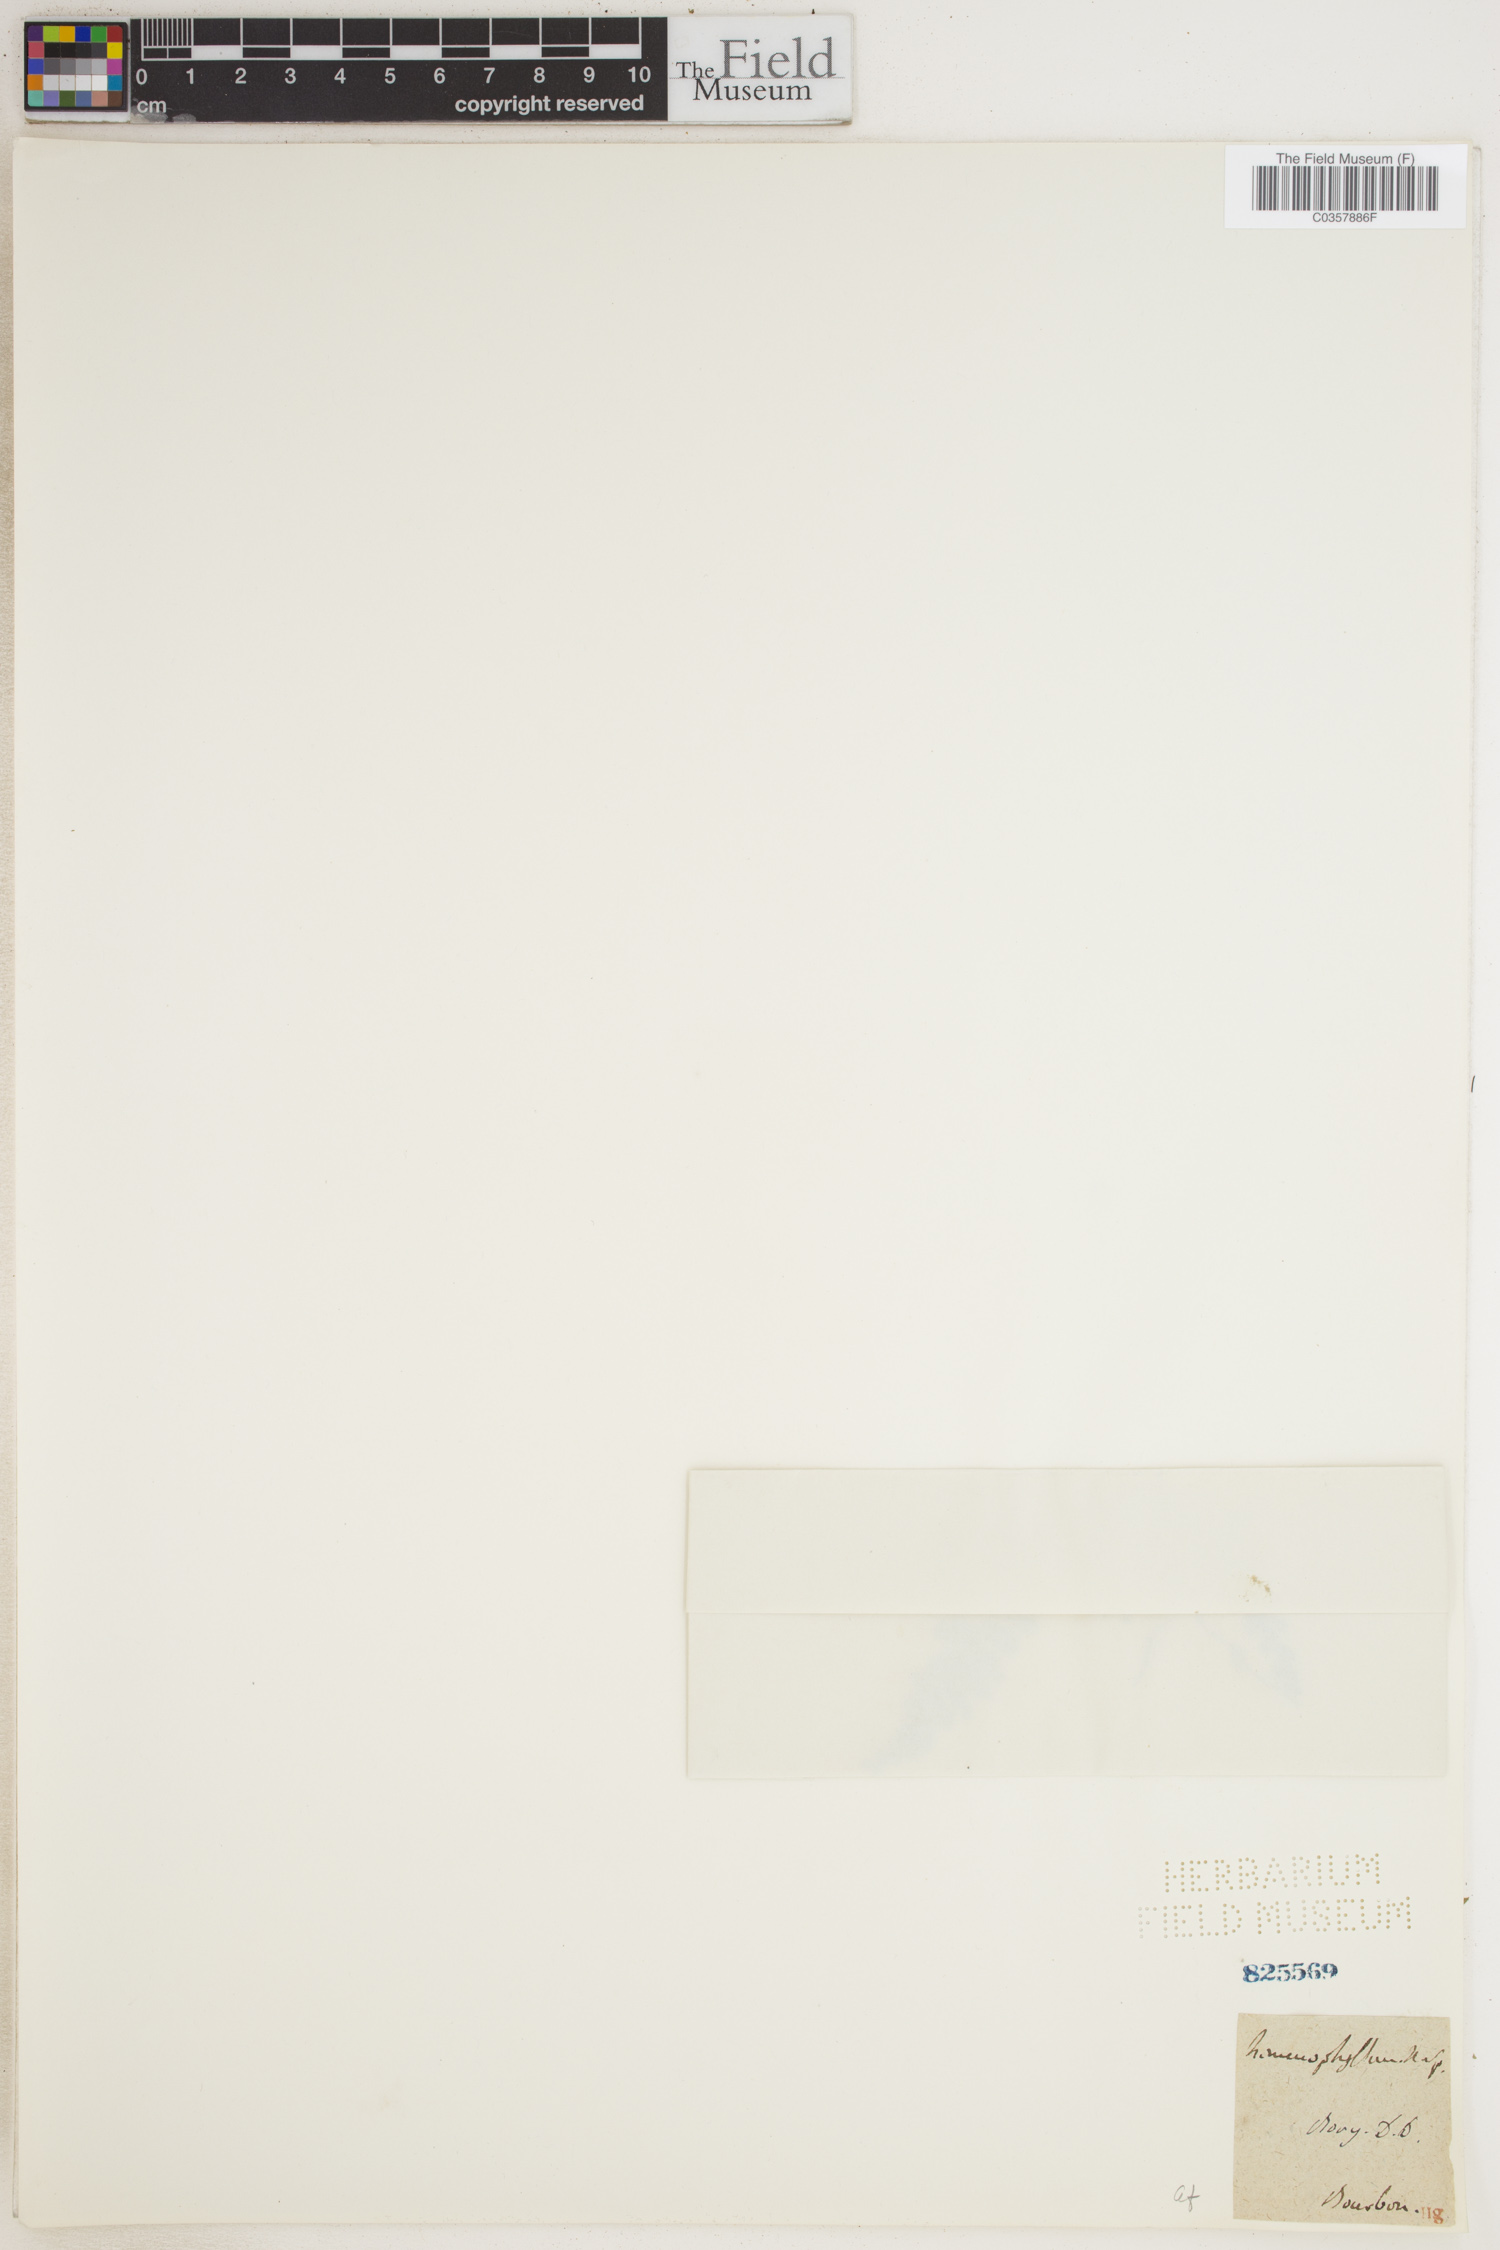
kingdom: Plantae
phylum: Tracheophyta
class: Polypodiopsida
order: Hymenophyllales
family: Hymenophyllaceae
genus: Hymenophyllum
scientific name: Hymenophyllum peltatum
